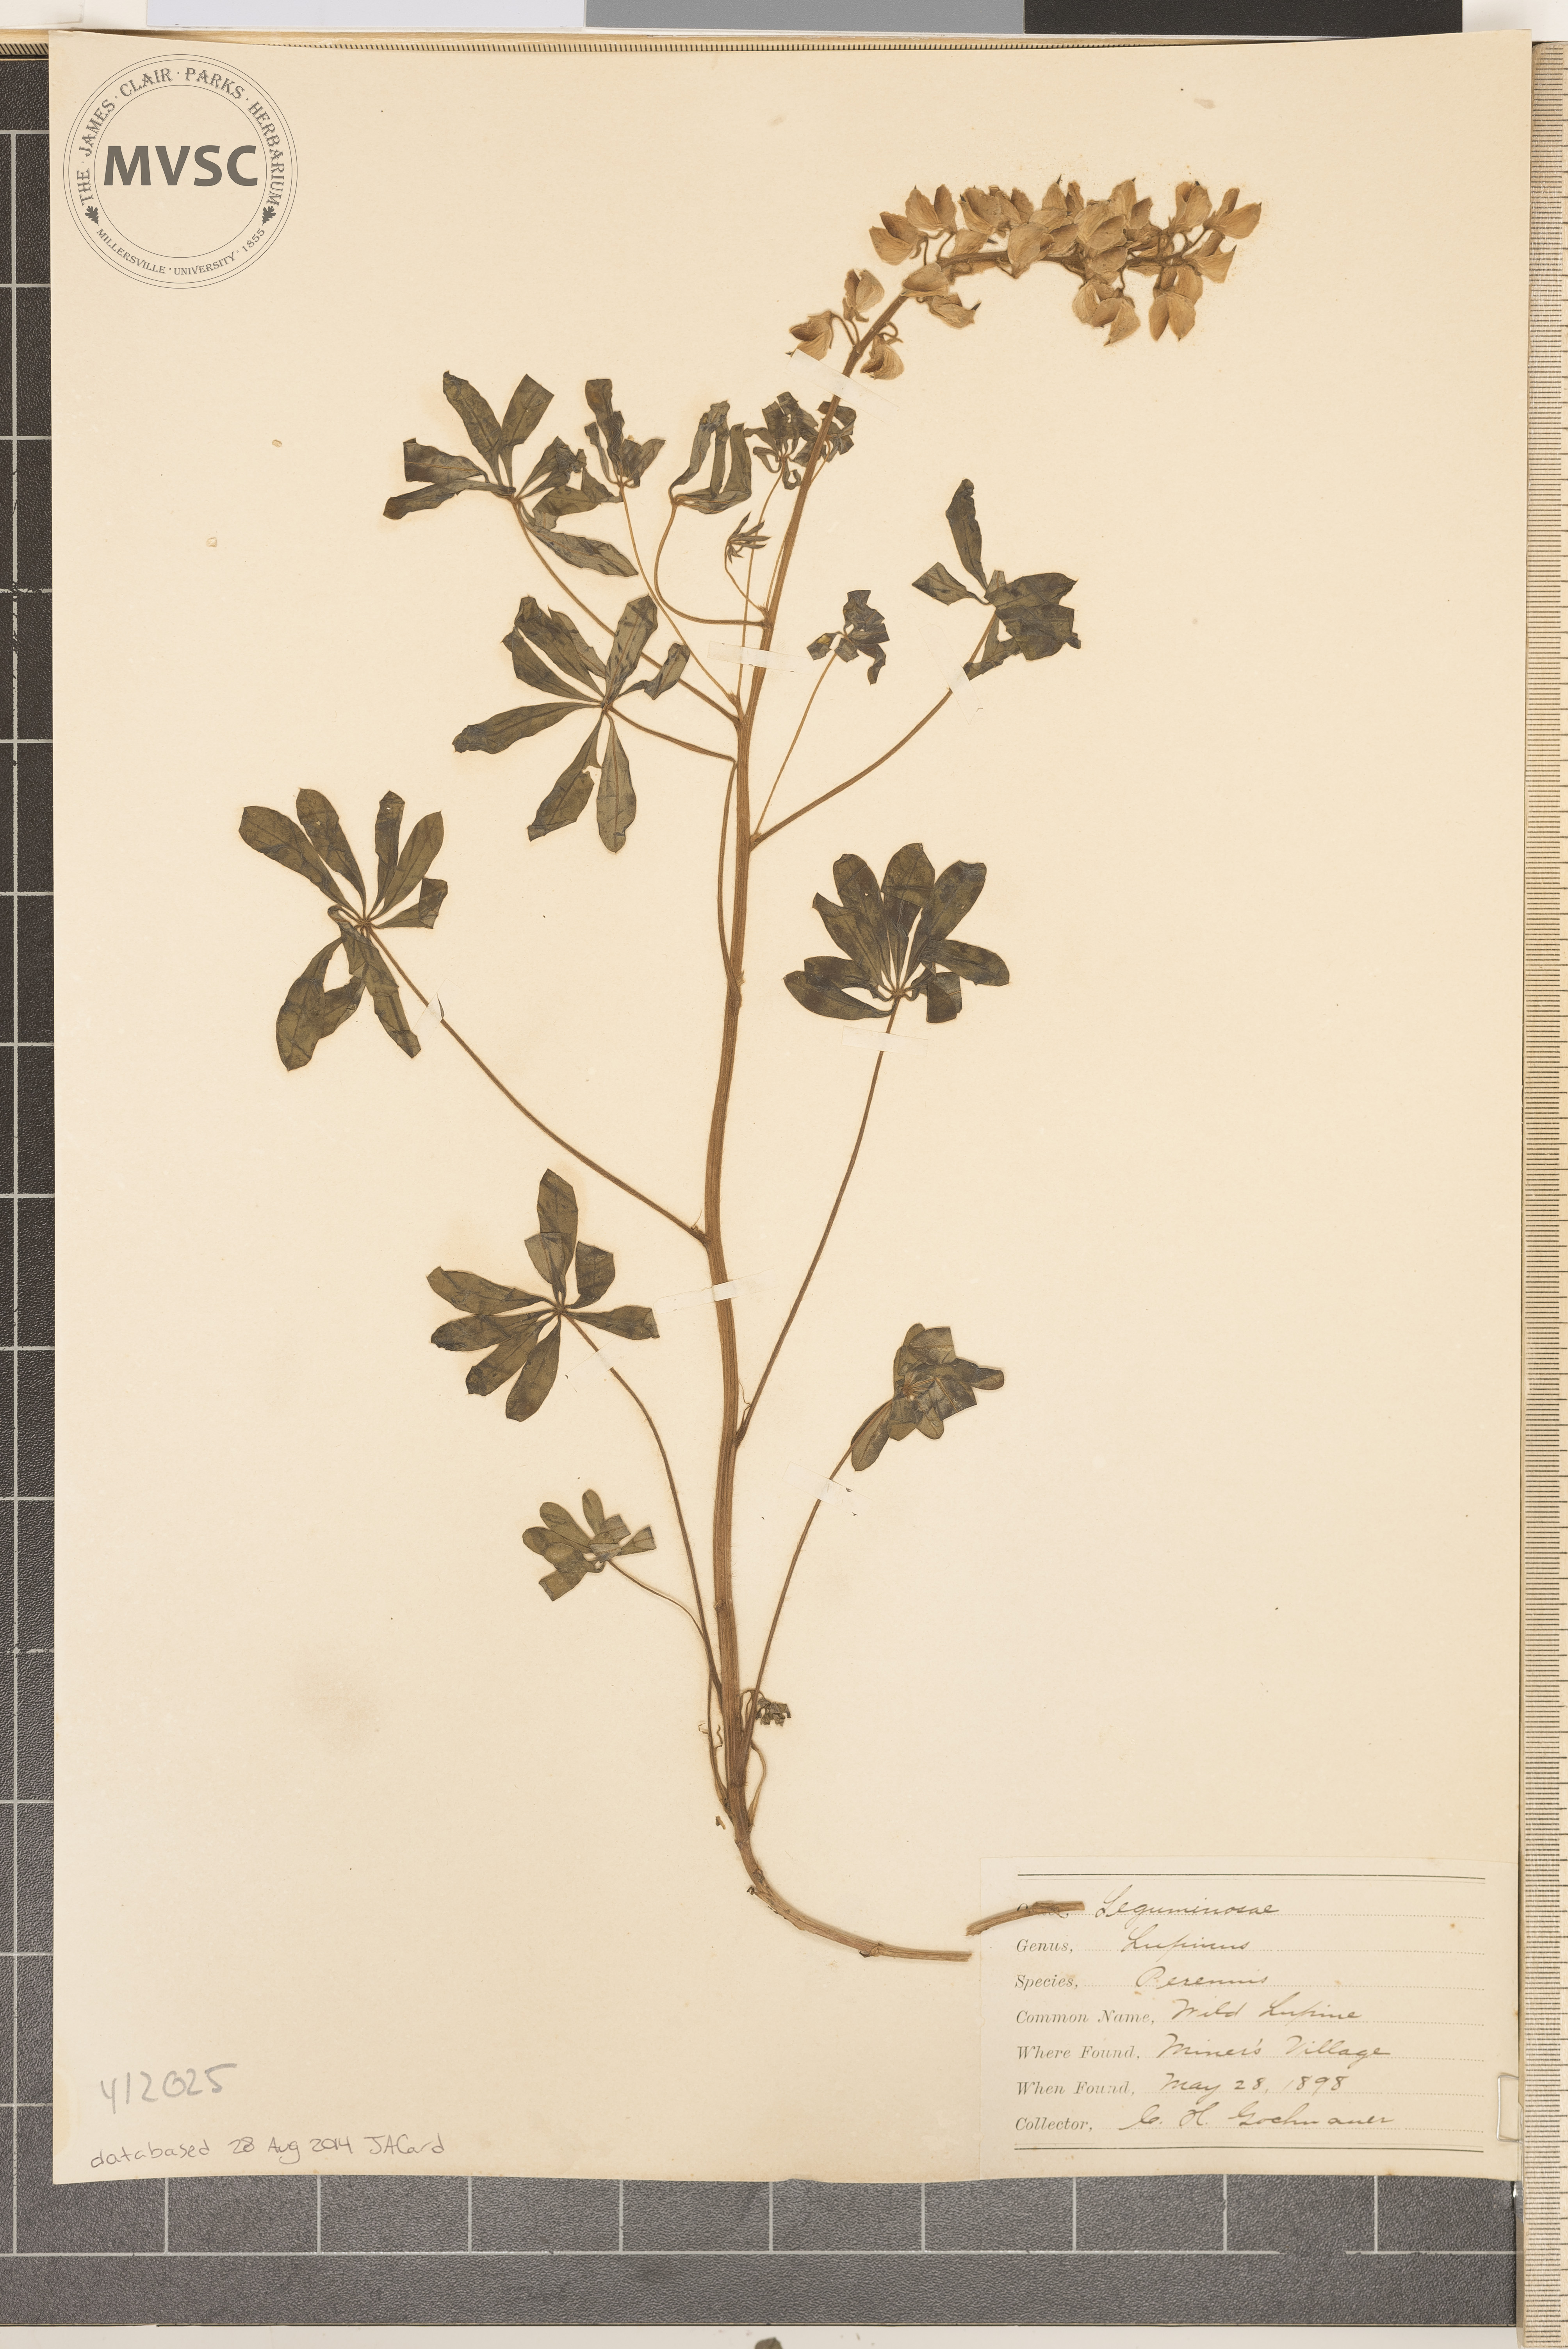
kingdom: Plantae
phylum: Tracheophyta
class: Magnoliopsida
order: Fabales
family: Fabaceae
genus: Lupinus
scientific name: Lupinus perennis
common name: Wild Lupine
